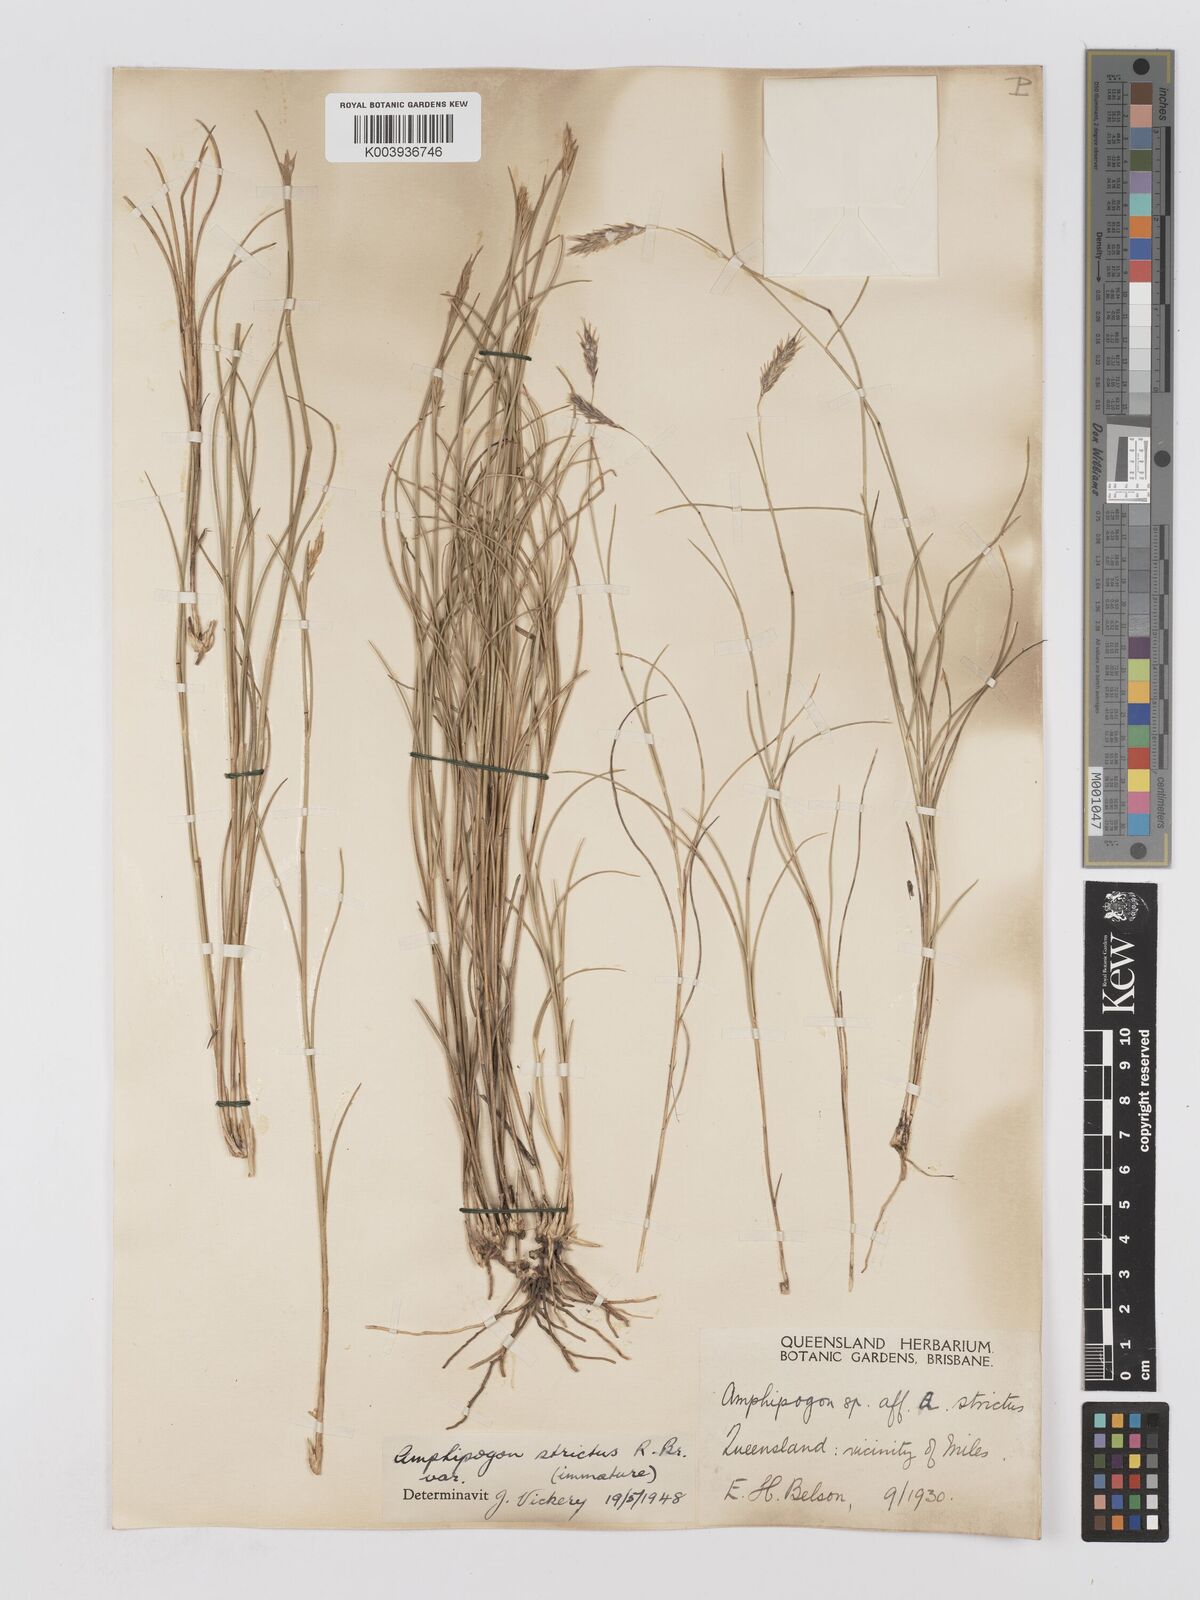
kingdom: Plantae
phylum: Tracheophyta
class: Liliopsida
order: Poales
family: Poaceae
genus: Amphipogon
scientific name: Amphipogon strictus
